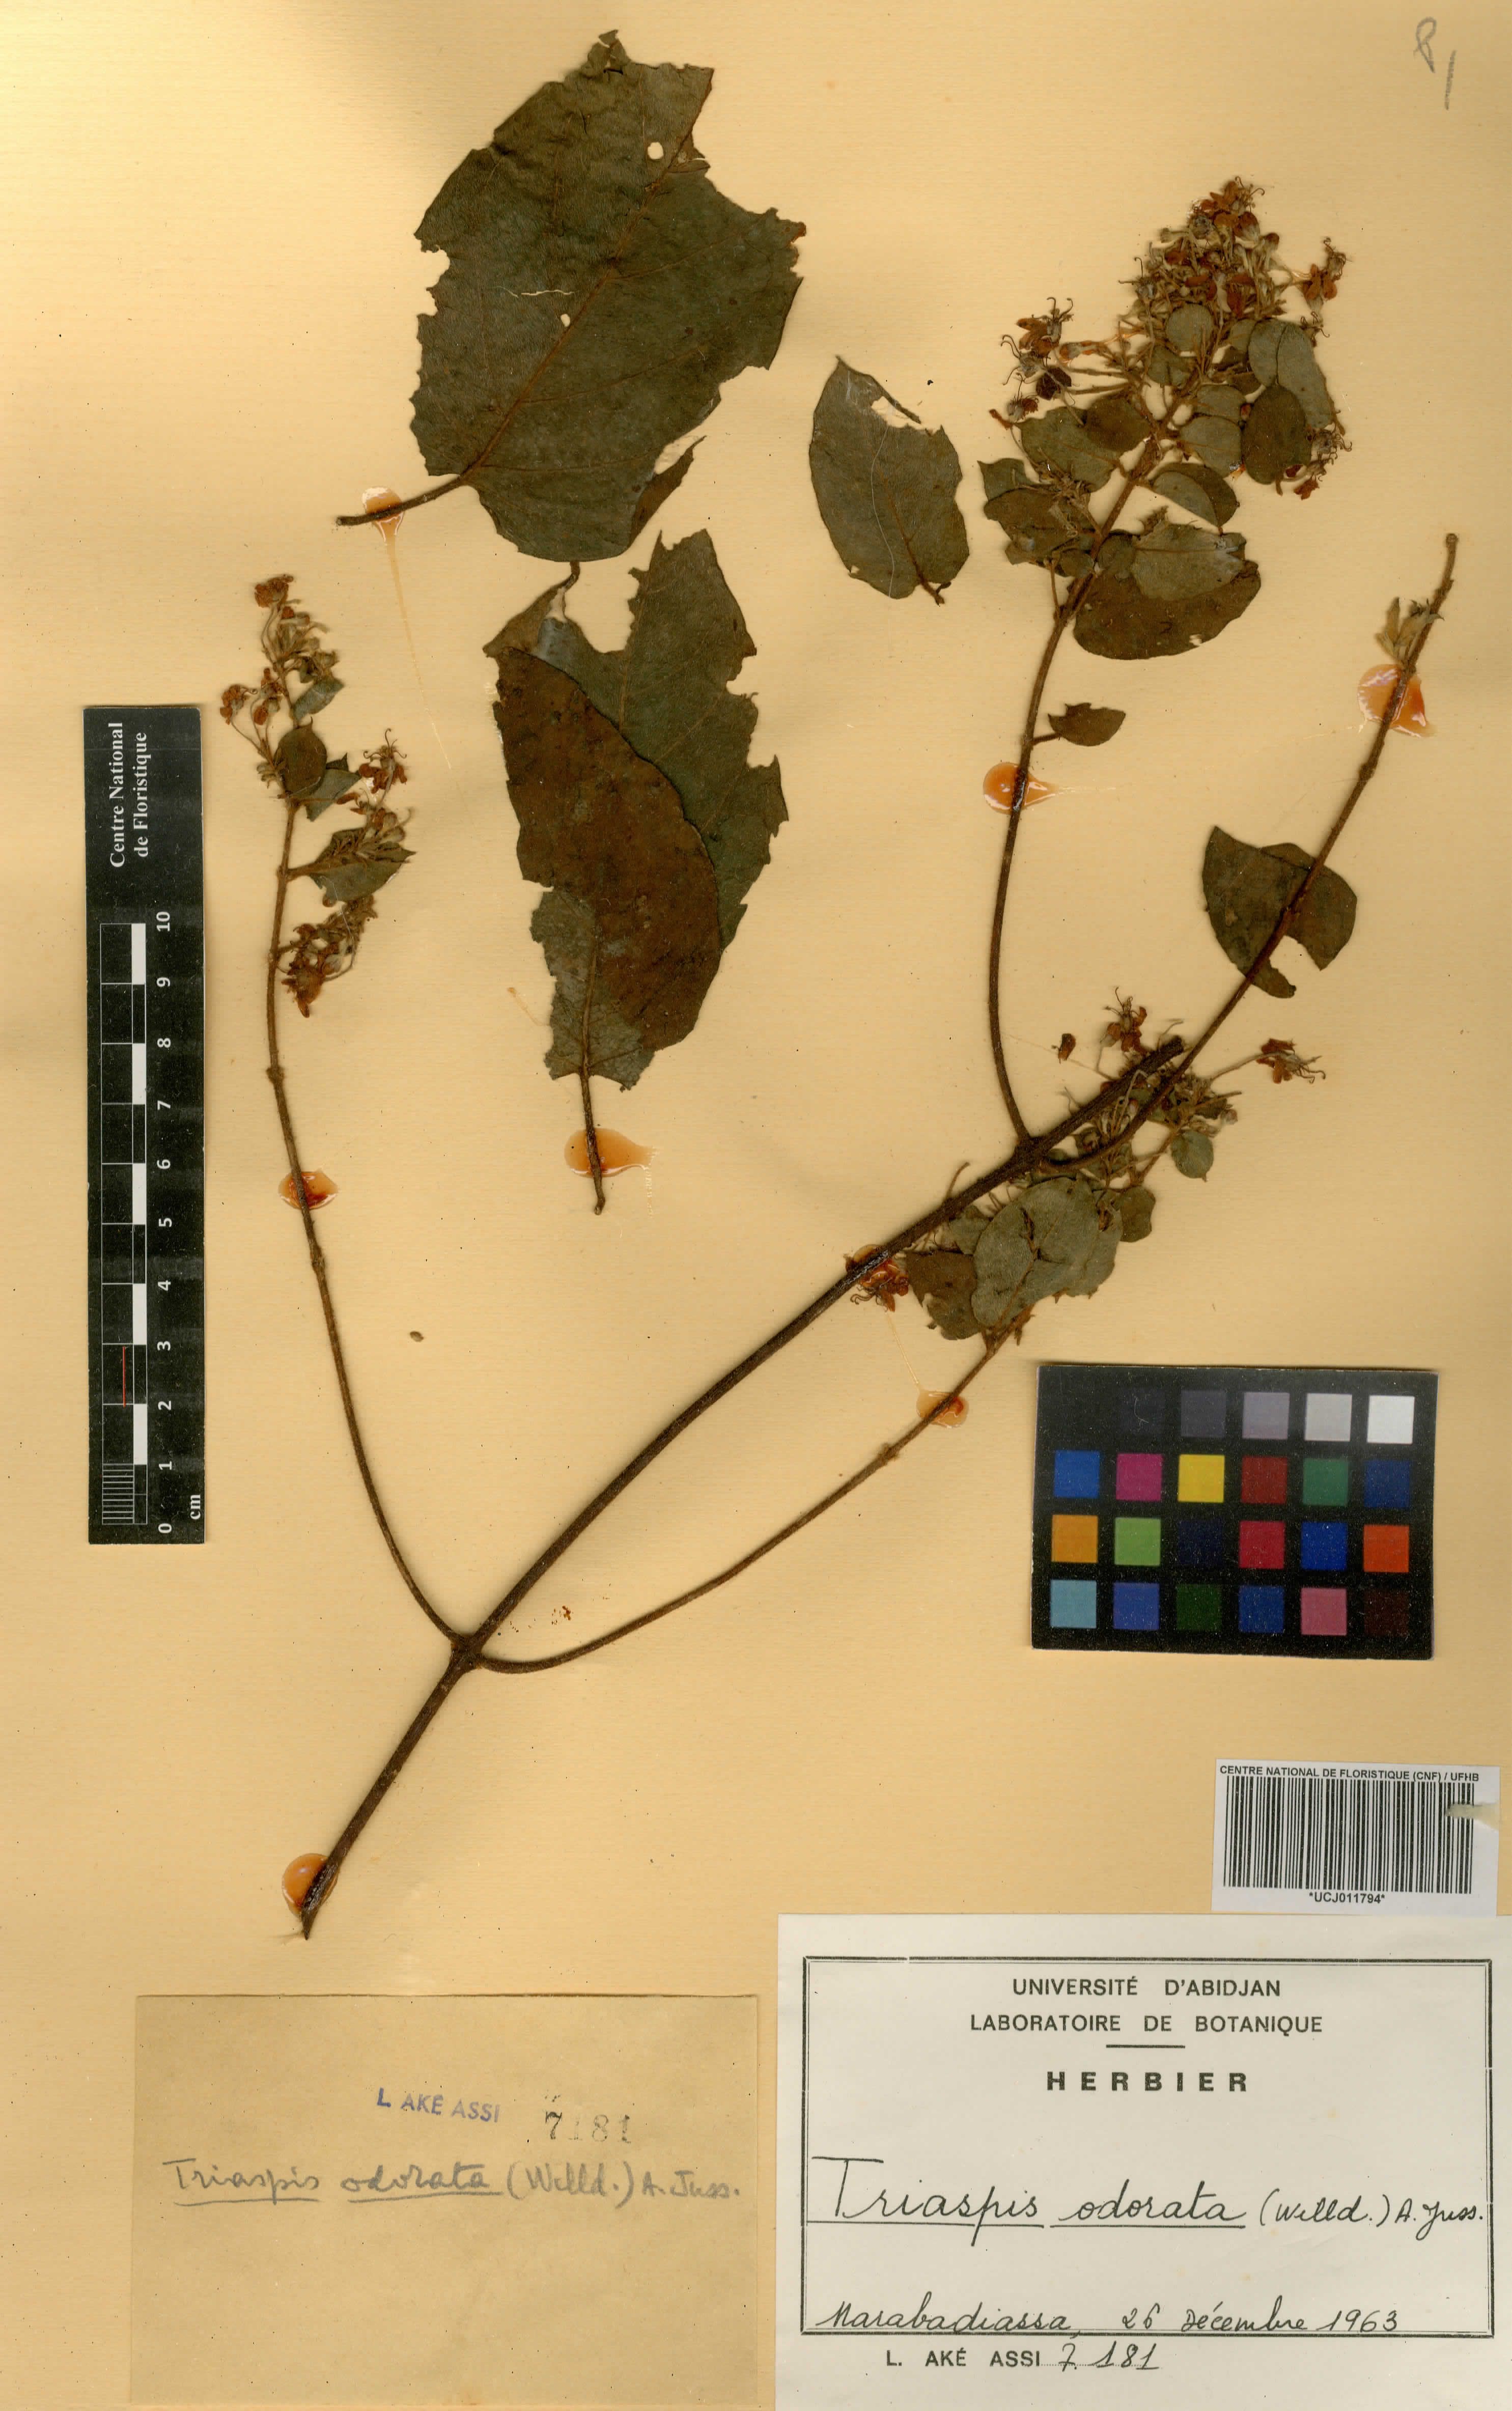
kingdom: Plantae
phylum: Tracheophyta
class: Magnoliopsida
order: Malpighiales
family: Malpighiaceae
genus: Triaspis
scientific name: Triaspis odorata
